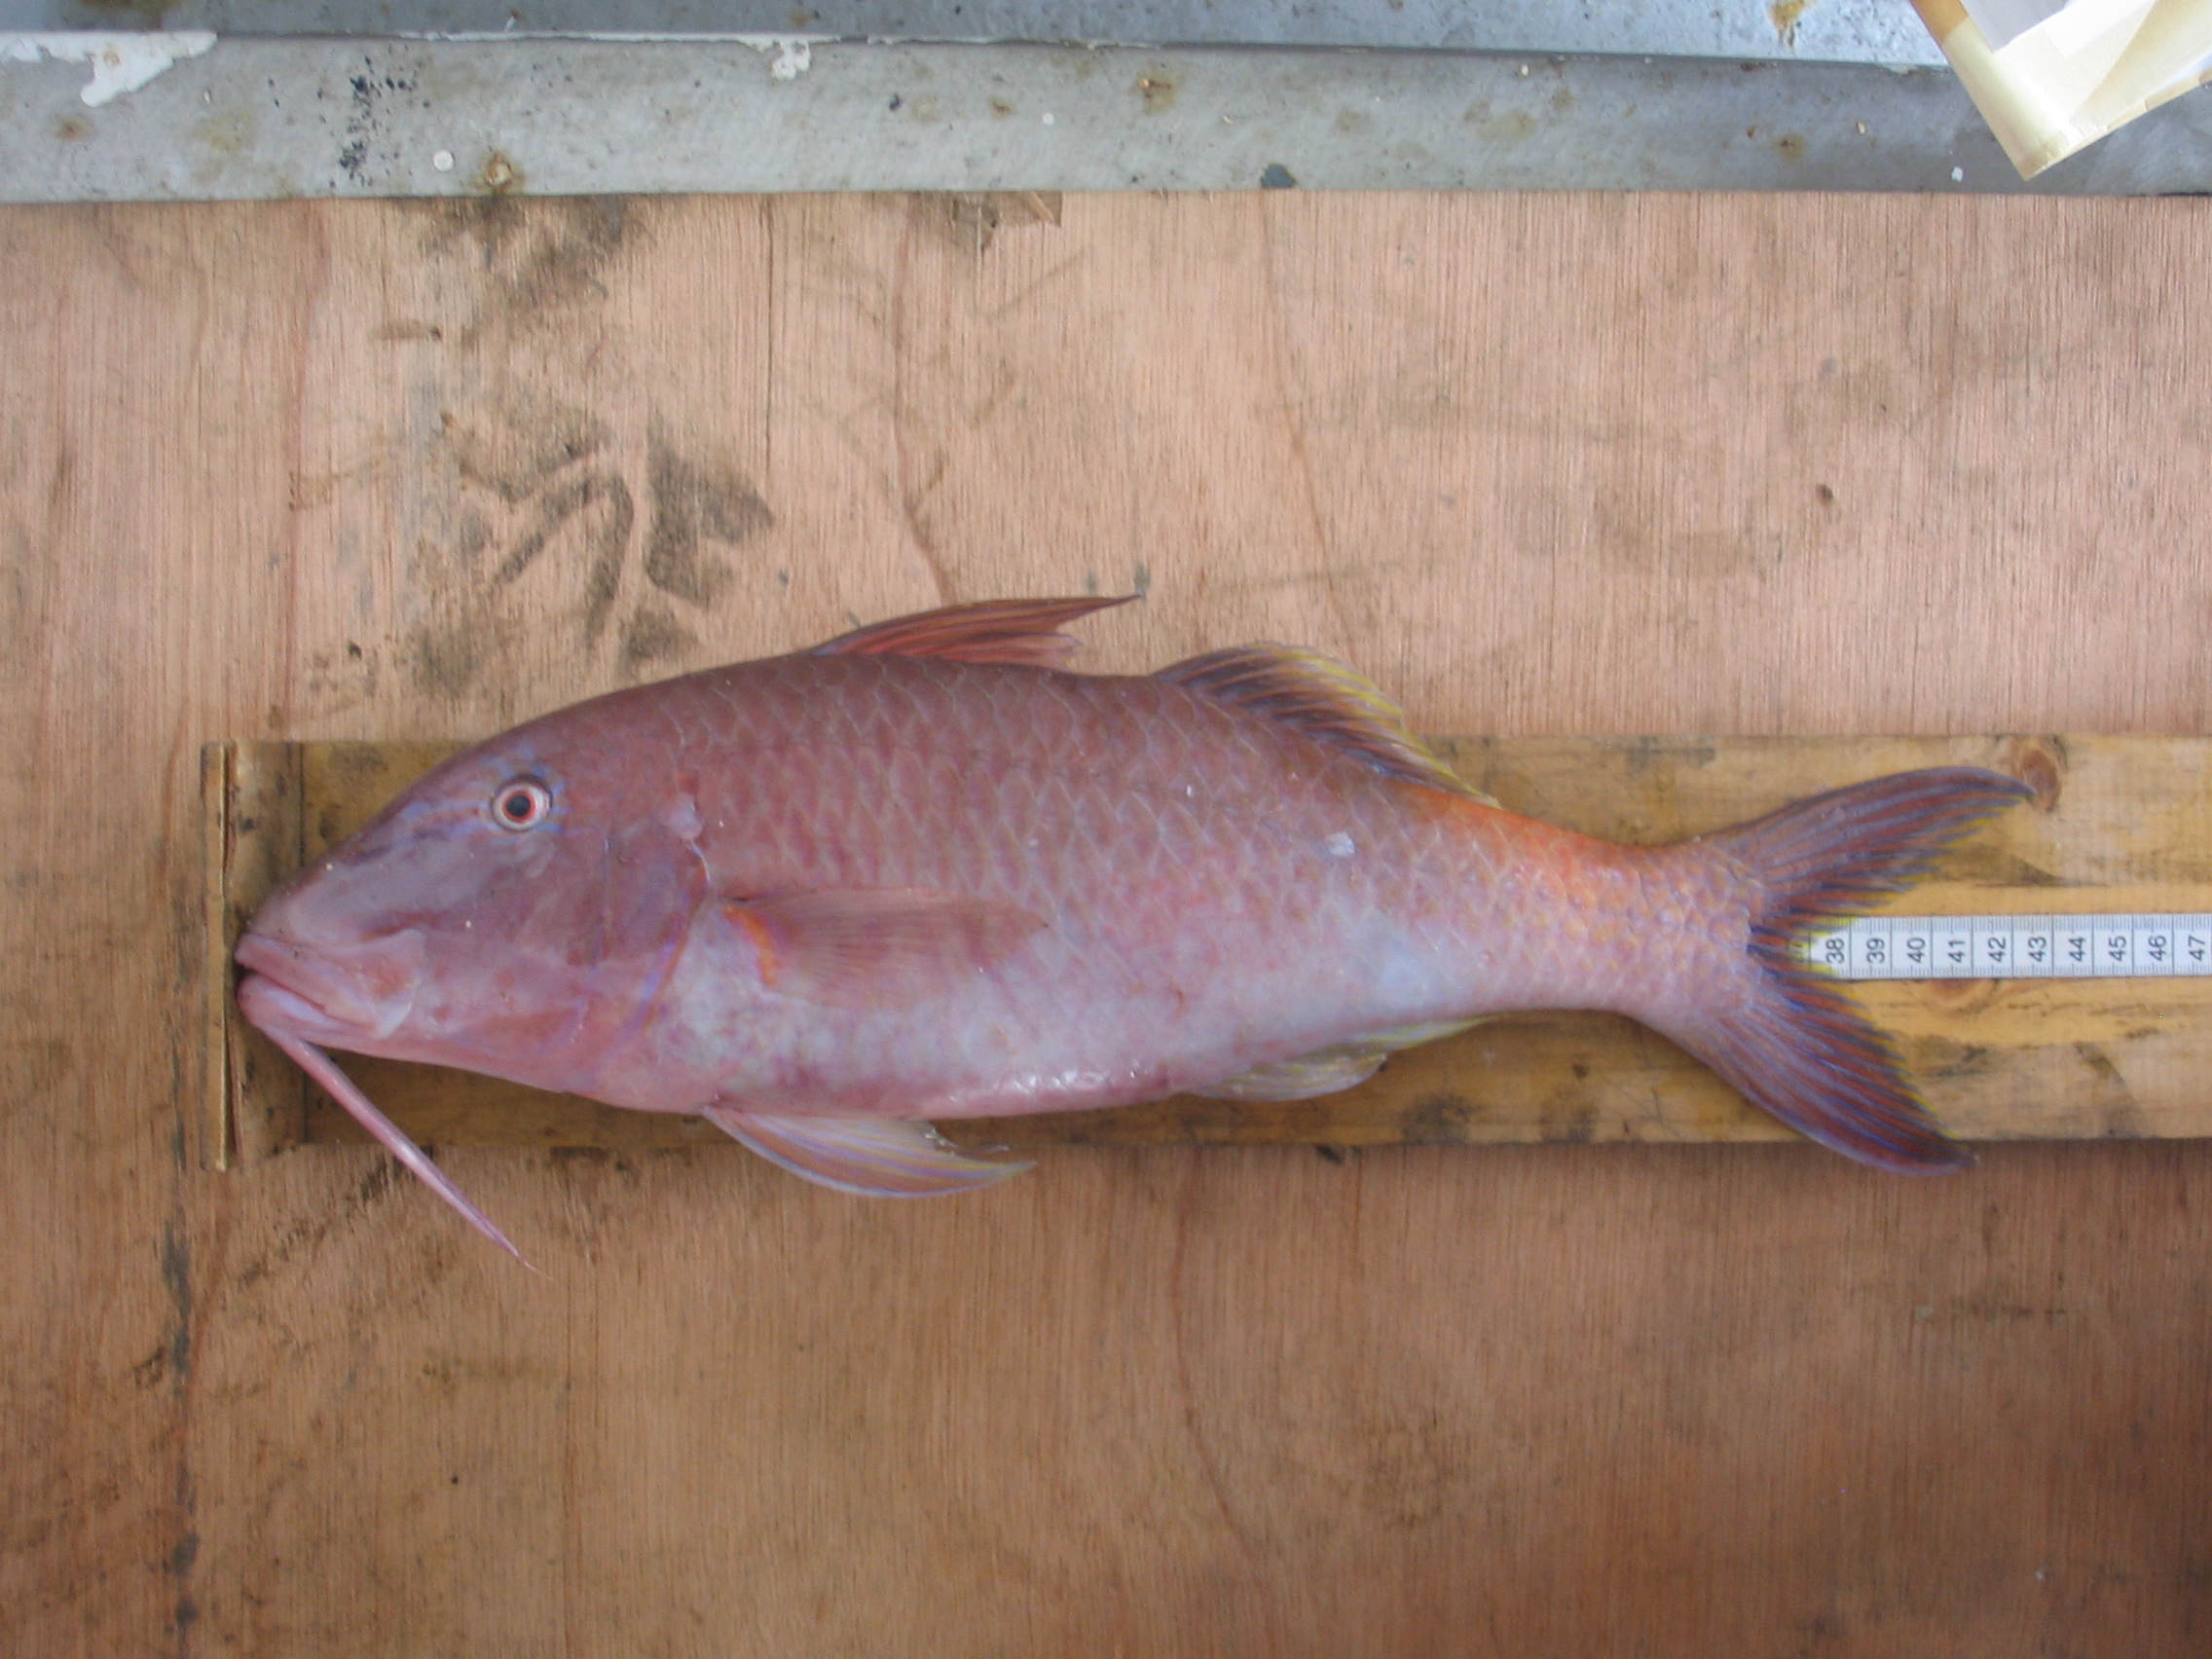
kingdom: Animalia
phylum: Chordata
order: Perciformes
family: Mullidae
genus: Parupeneus
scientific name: Parupeneus cyclostomus
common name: Goldsaddle goatfish
